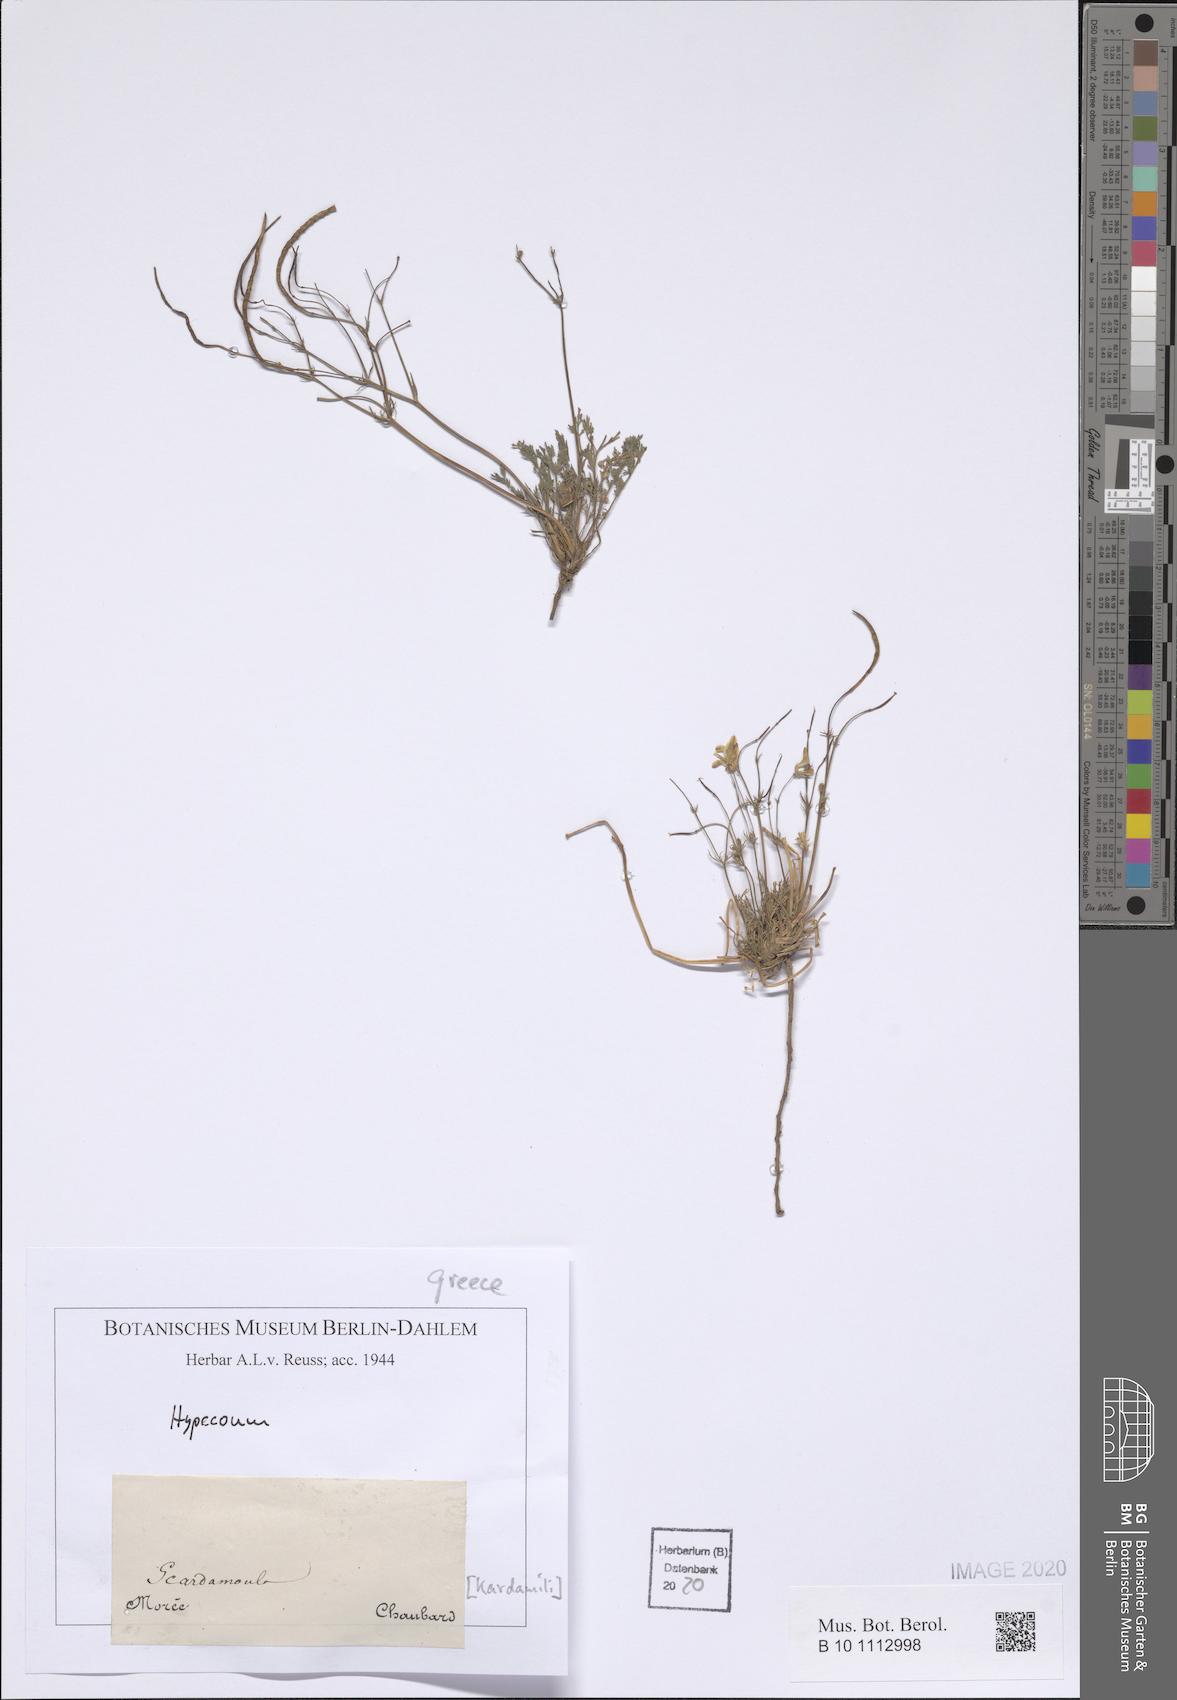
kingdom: Plantae
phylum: Tracheophyta
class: Magnoliopsida
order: Ranunculales
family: Papaveraceae
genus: Hypecoum
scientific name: Hypecoum
